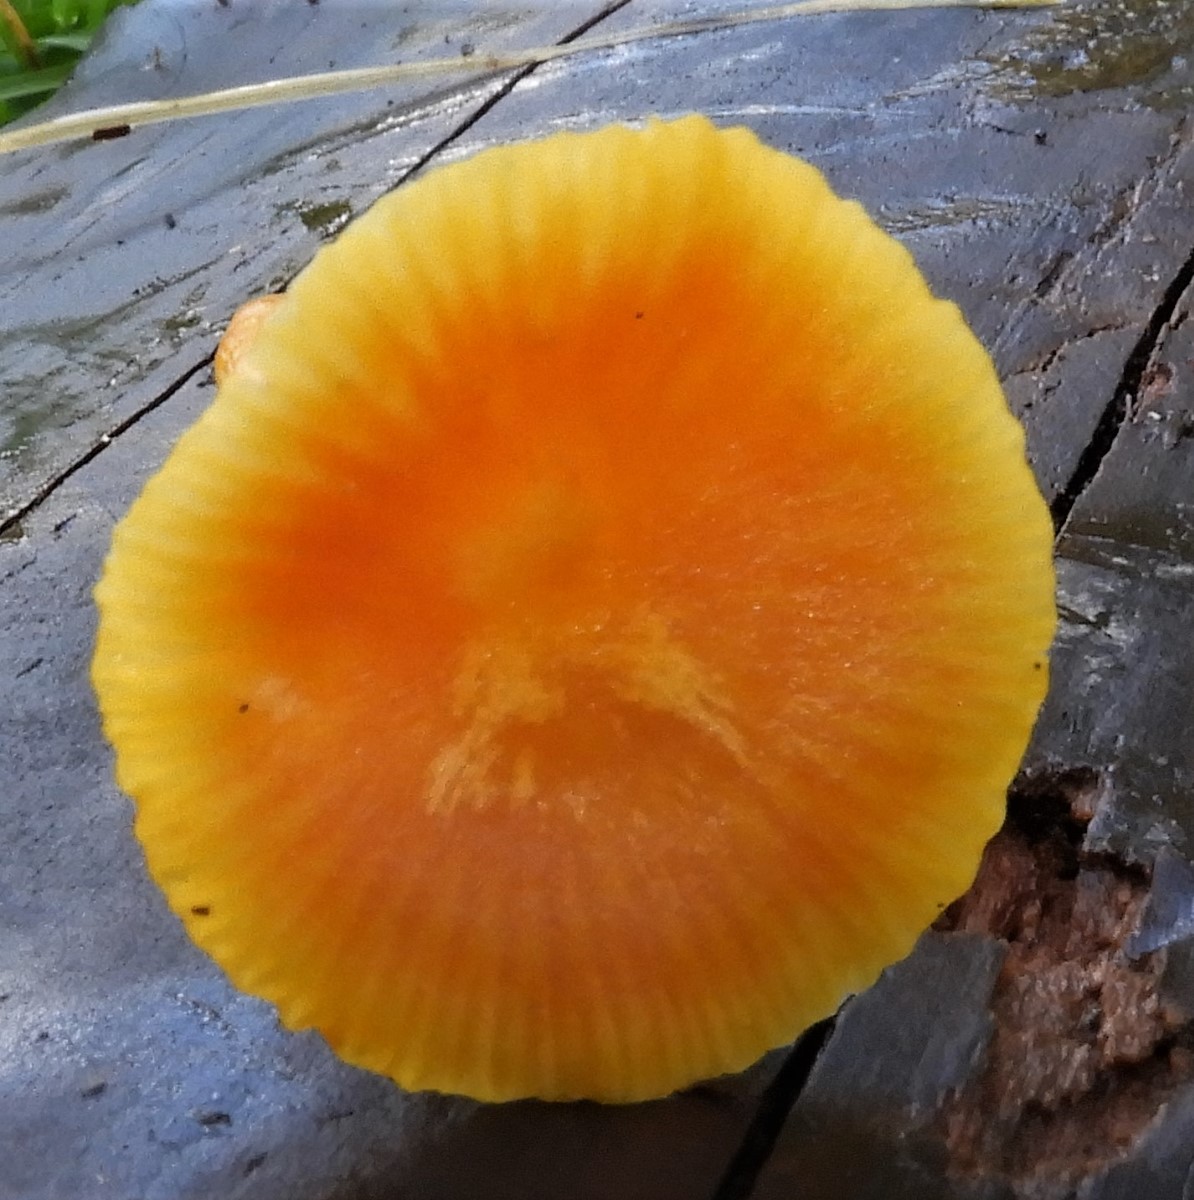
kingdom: Fungi
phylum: Basidiomycota
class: Agaricomycetes
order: Agaricales
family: Hygrophoraceae
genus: Hygrocybe
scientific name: Hygrocybe
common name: vokshat
